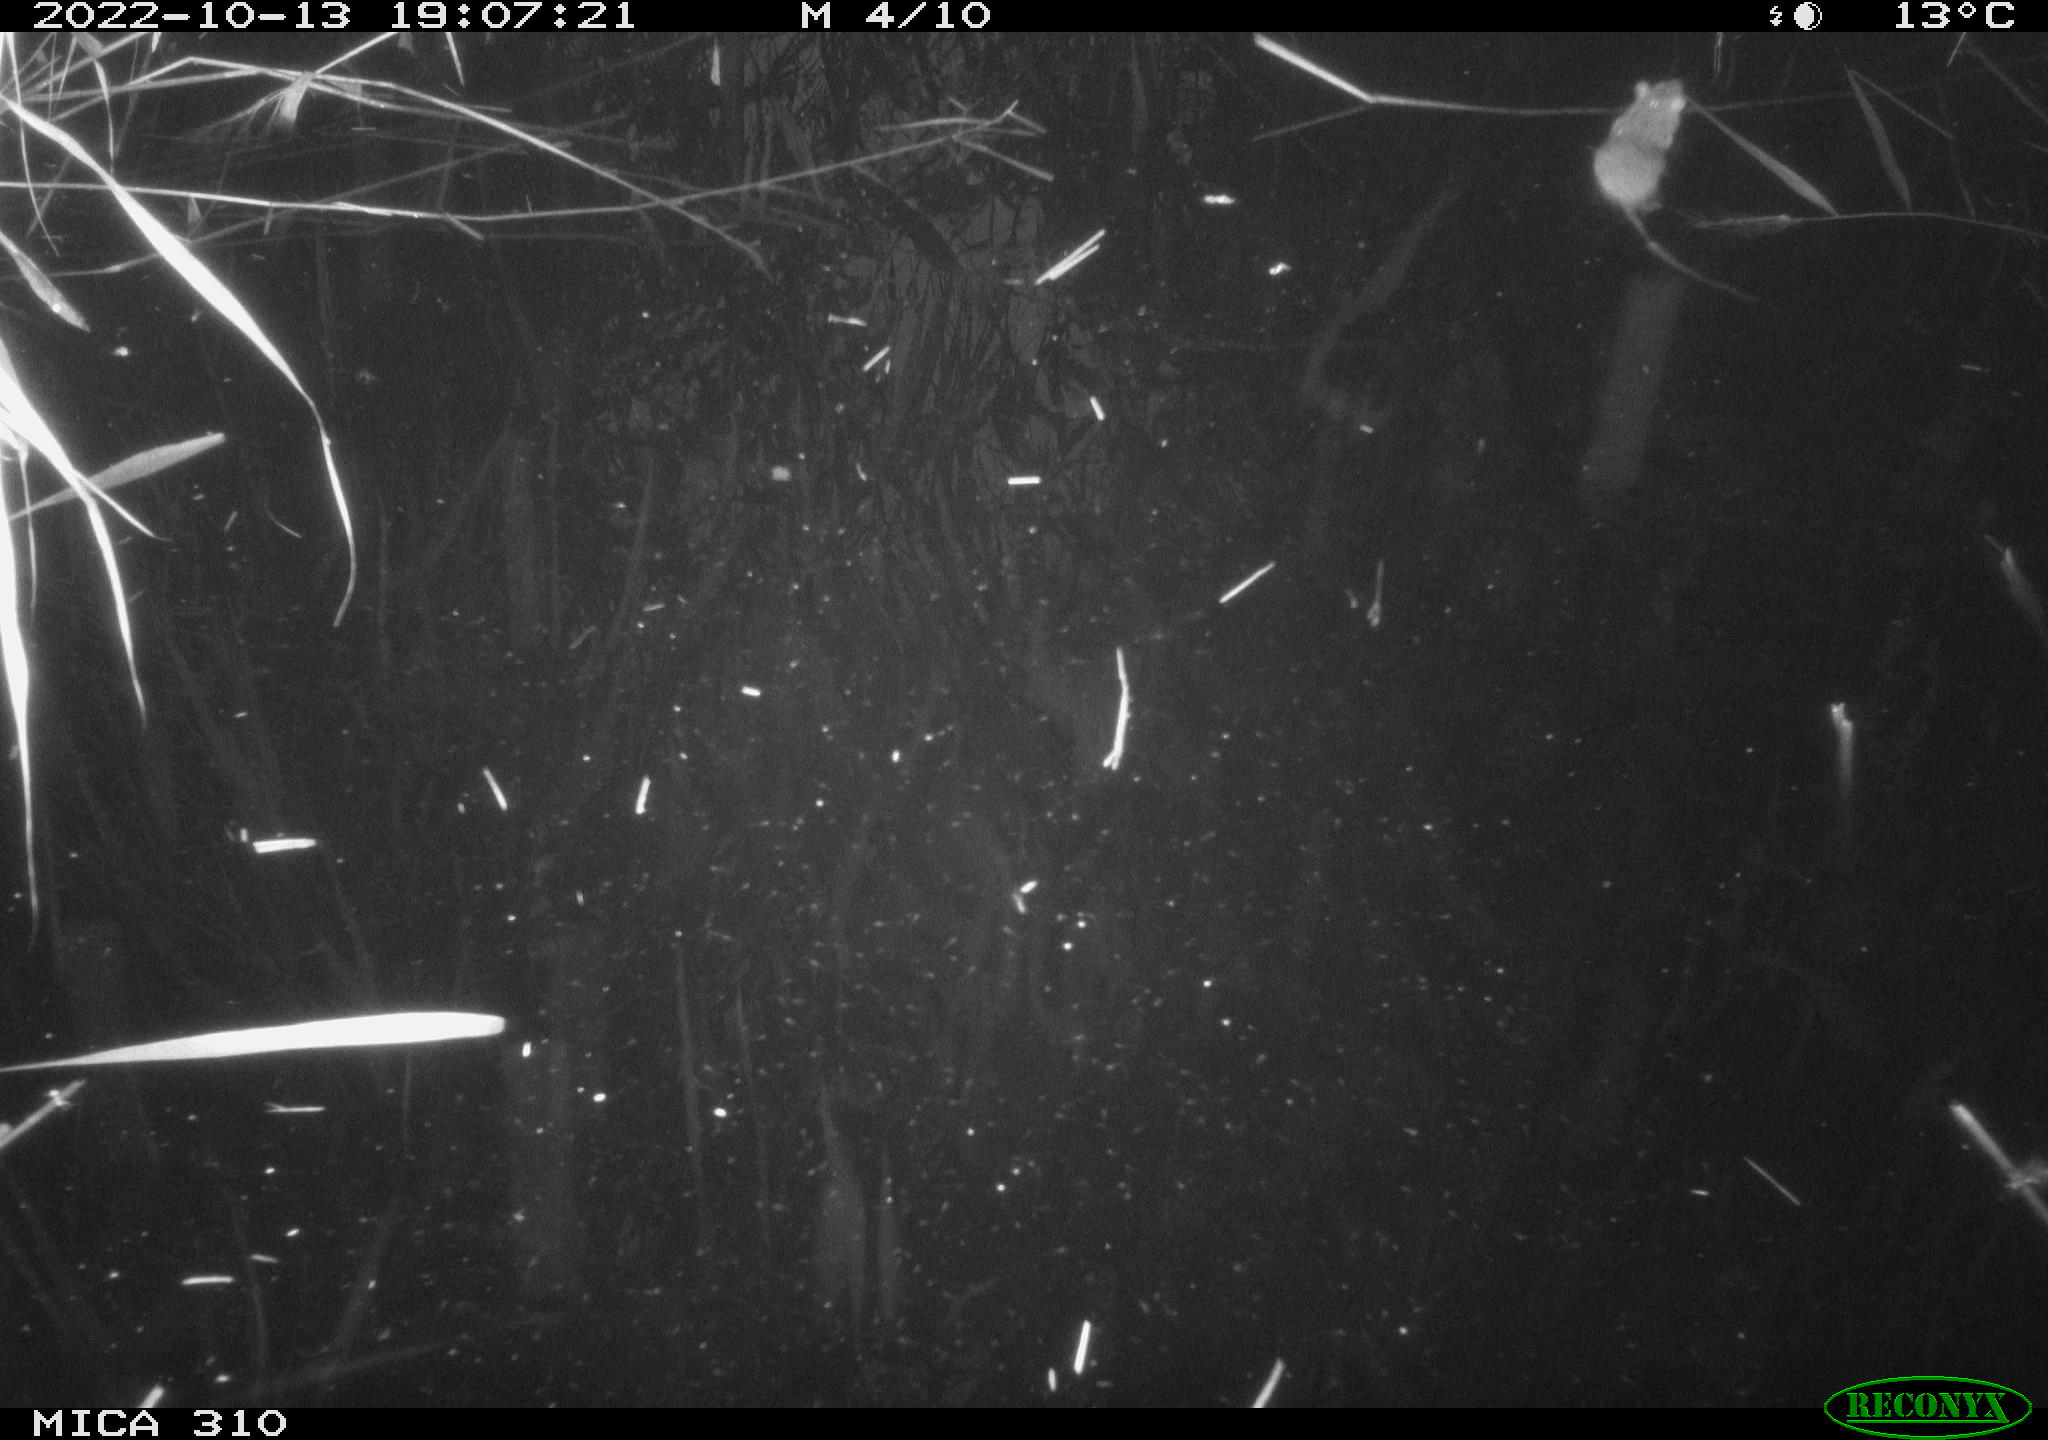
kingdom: Animalia
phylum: Chordata
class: Mammalia
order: Rodentia
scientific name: Rodentia
